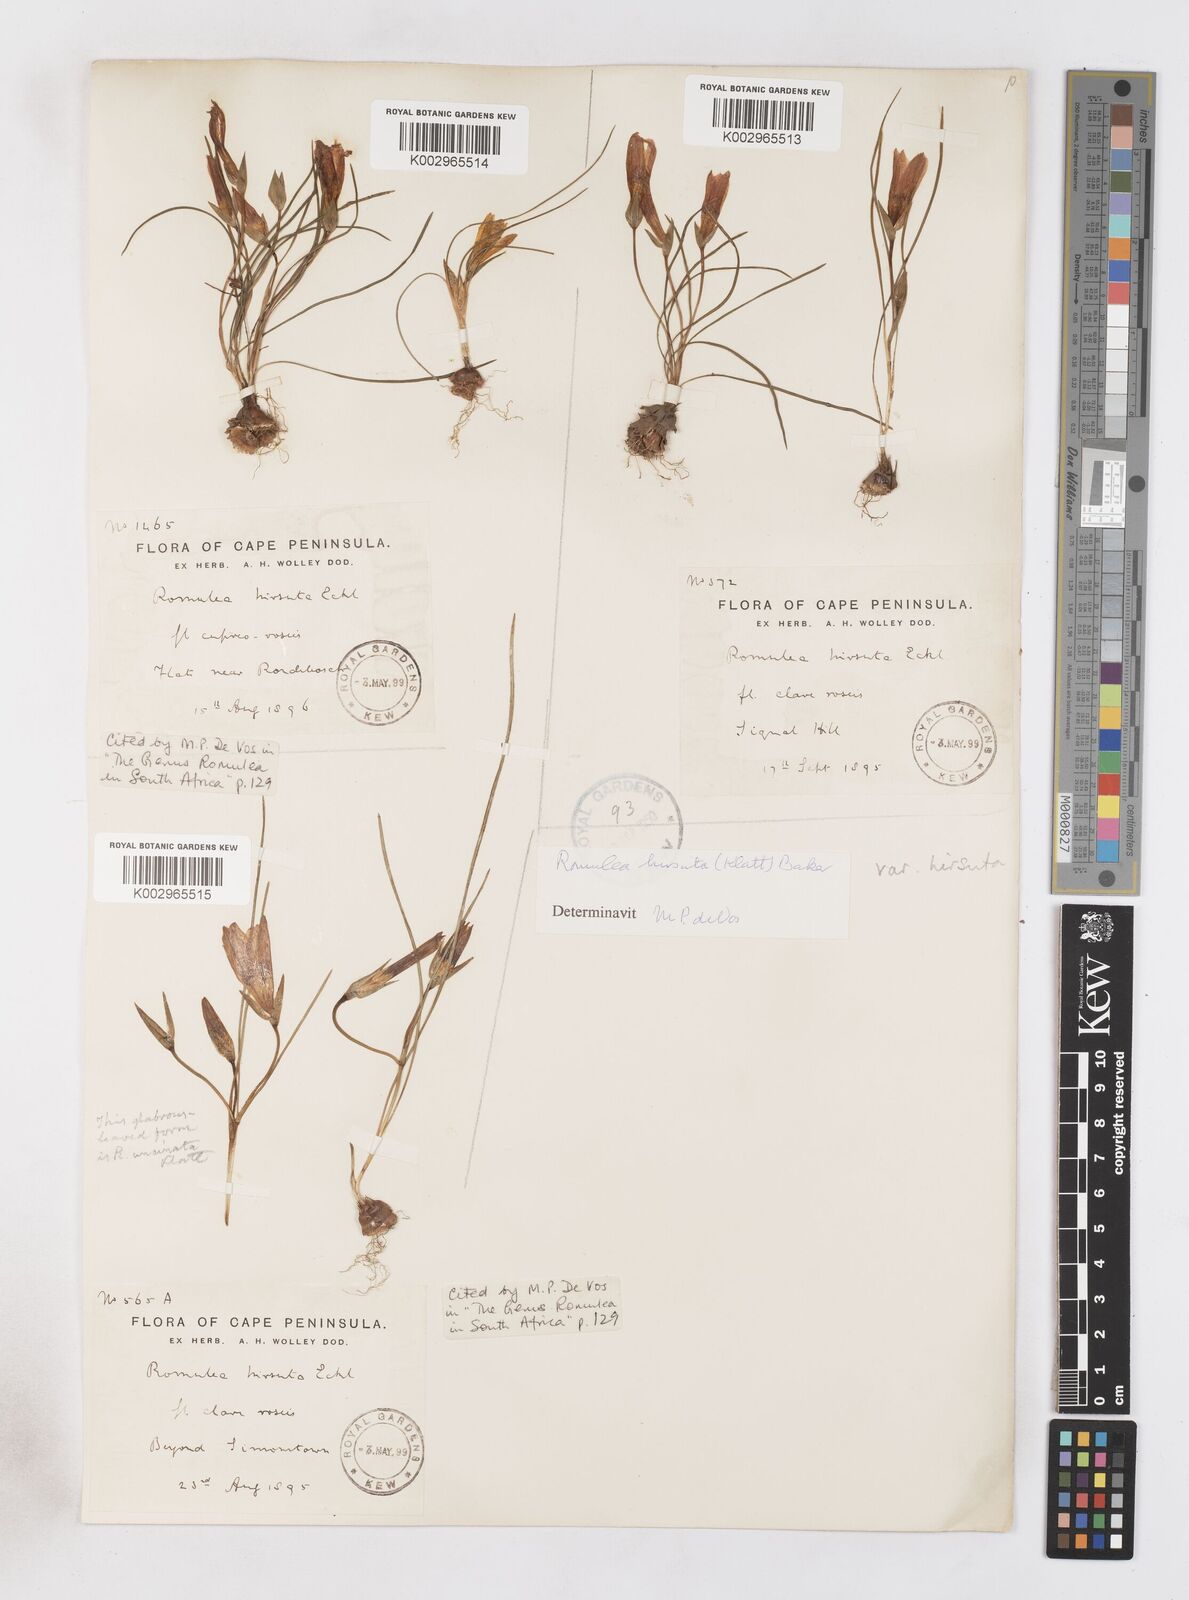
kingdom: Plantae
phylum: Tracheophyta
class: Liliopsida
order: Asparagales
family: Iridaceae
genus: Romulea
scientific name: Romulea hirsuta
